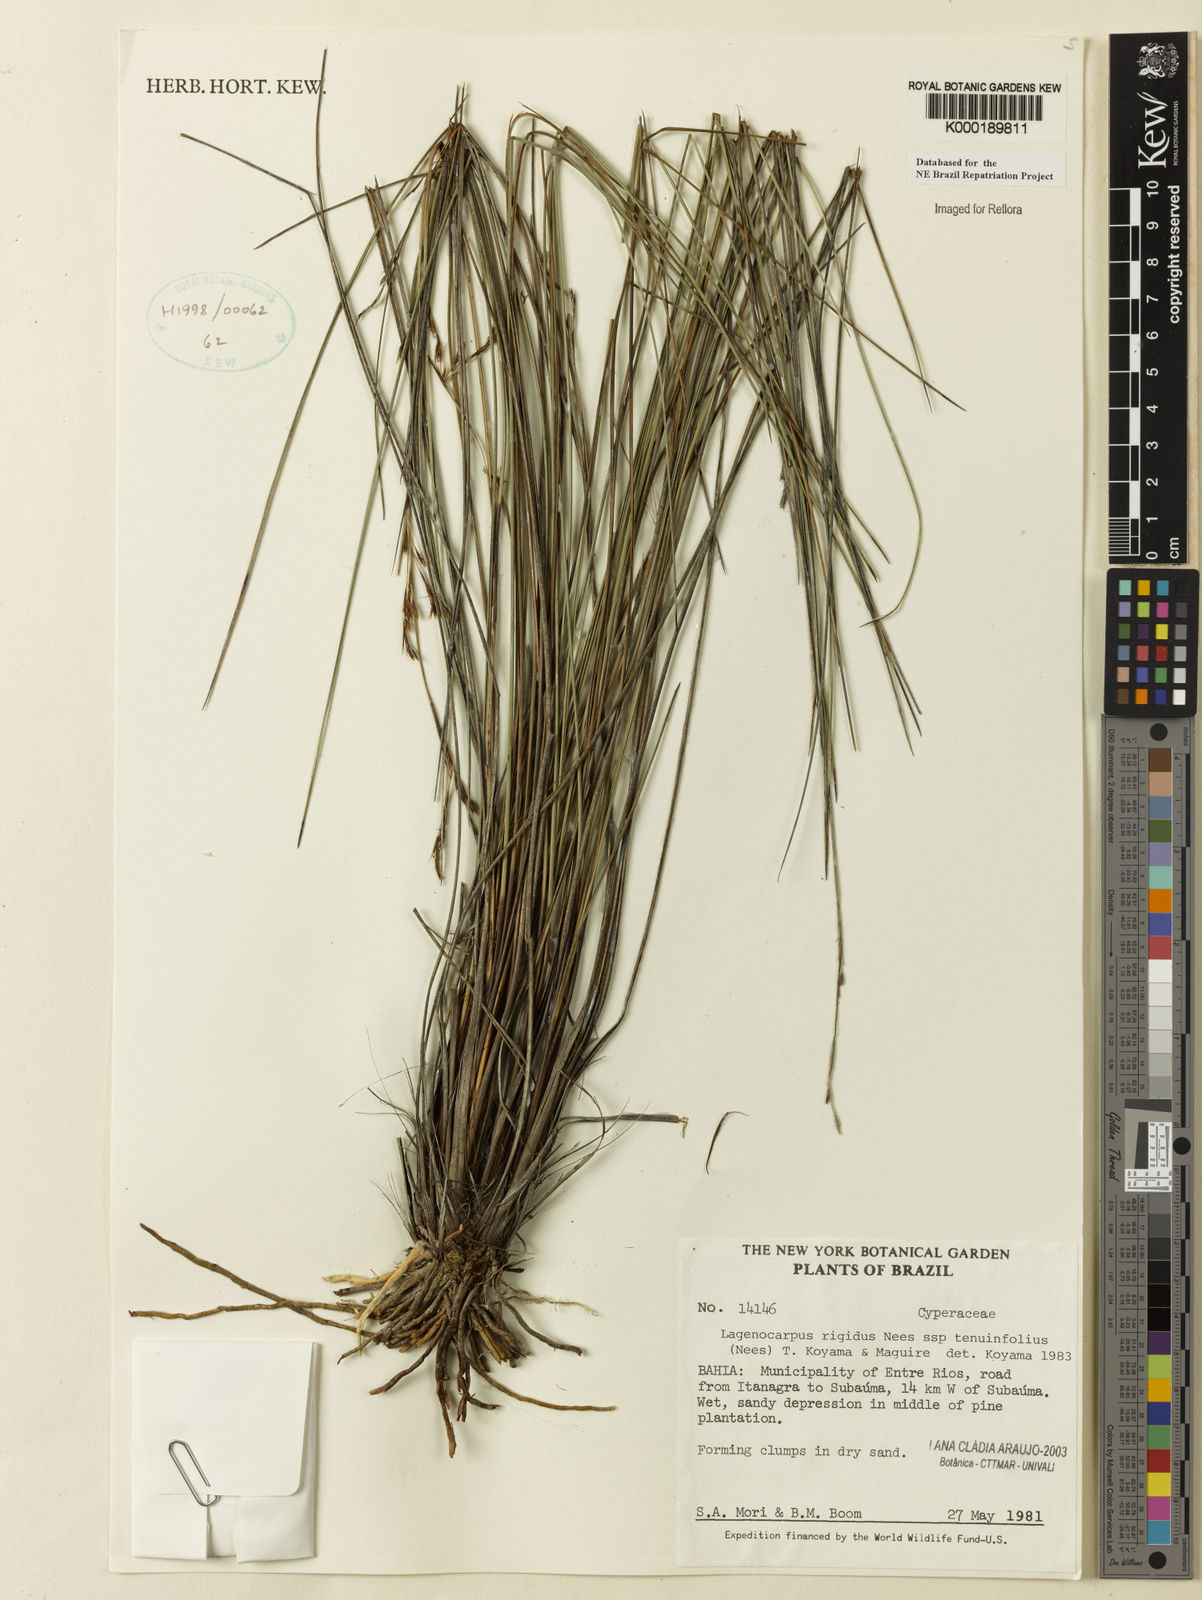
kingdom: Plantae
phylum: Tracheophyta
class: Liliopsida
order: Poales
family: Cyperaceae
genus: Lagenocarpus
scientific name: Lagenocarpus rigidus
